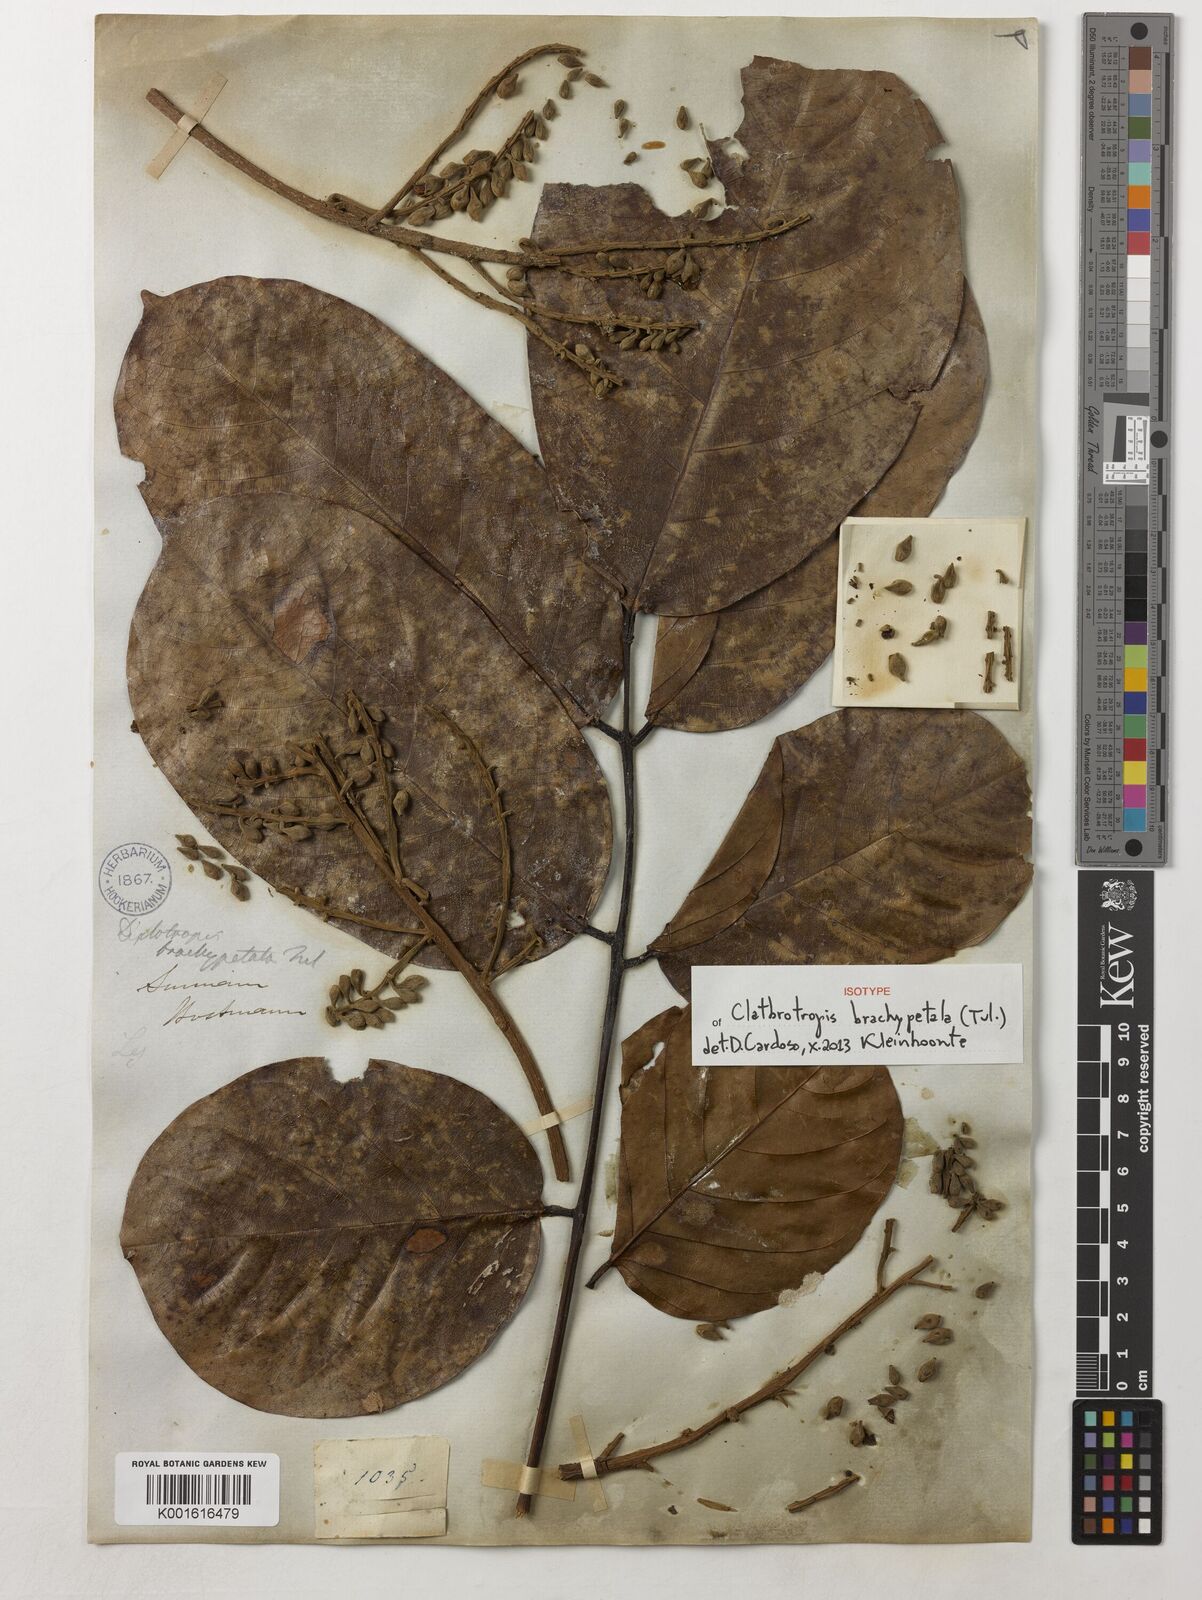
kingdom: Plantae
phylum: Tracheophyta
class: Magnoliopsida
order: Fabales
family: Fabaceae
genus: Clathrotropis
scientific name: Clathrotropis brachypetala
